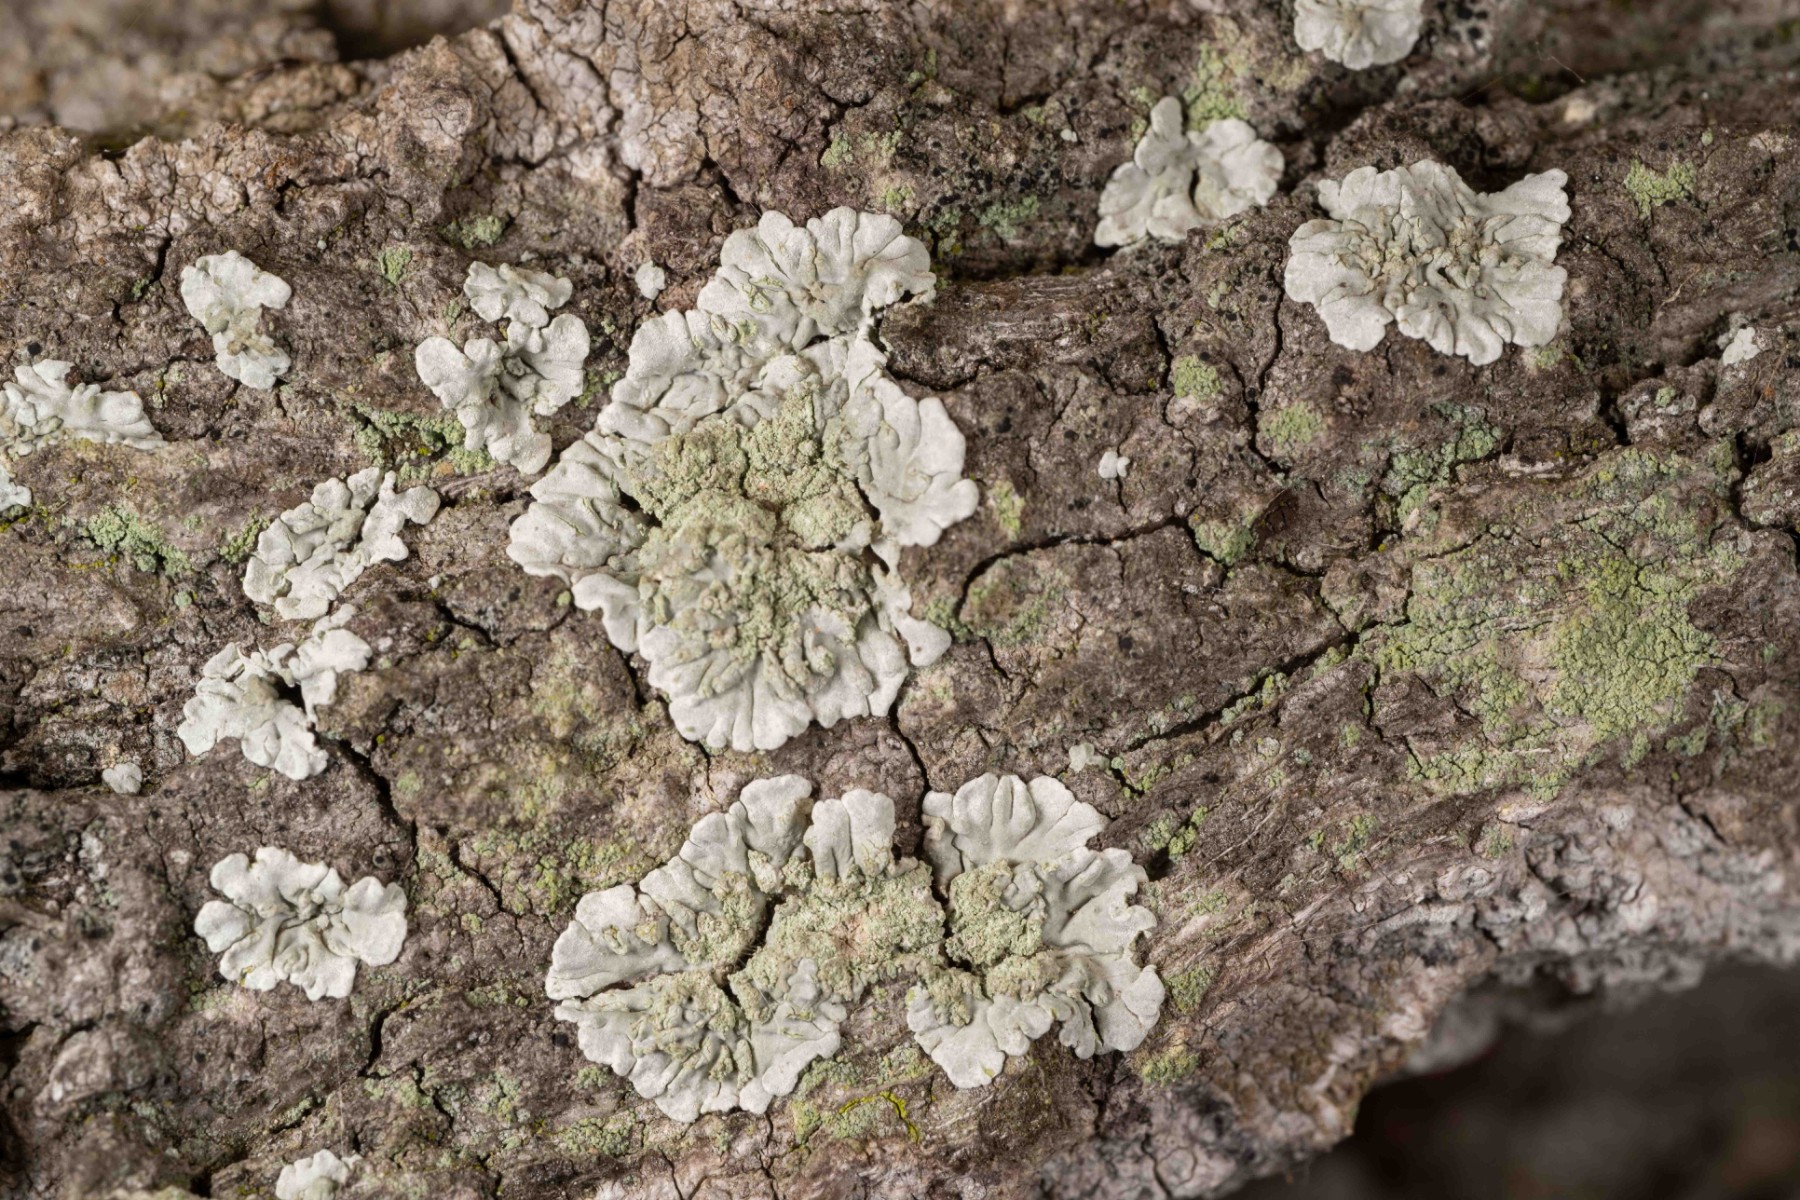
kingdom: Fungi
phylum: Ascomycota
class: Lecanoromycetes
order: Caliciales
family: Caliciaceae
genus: Diploicia
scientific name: Diploicia canescens
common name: grå støvrosetlav
